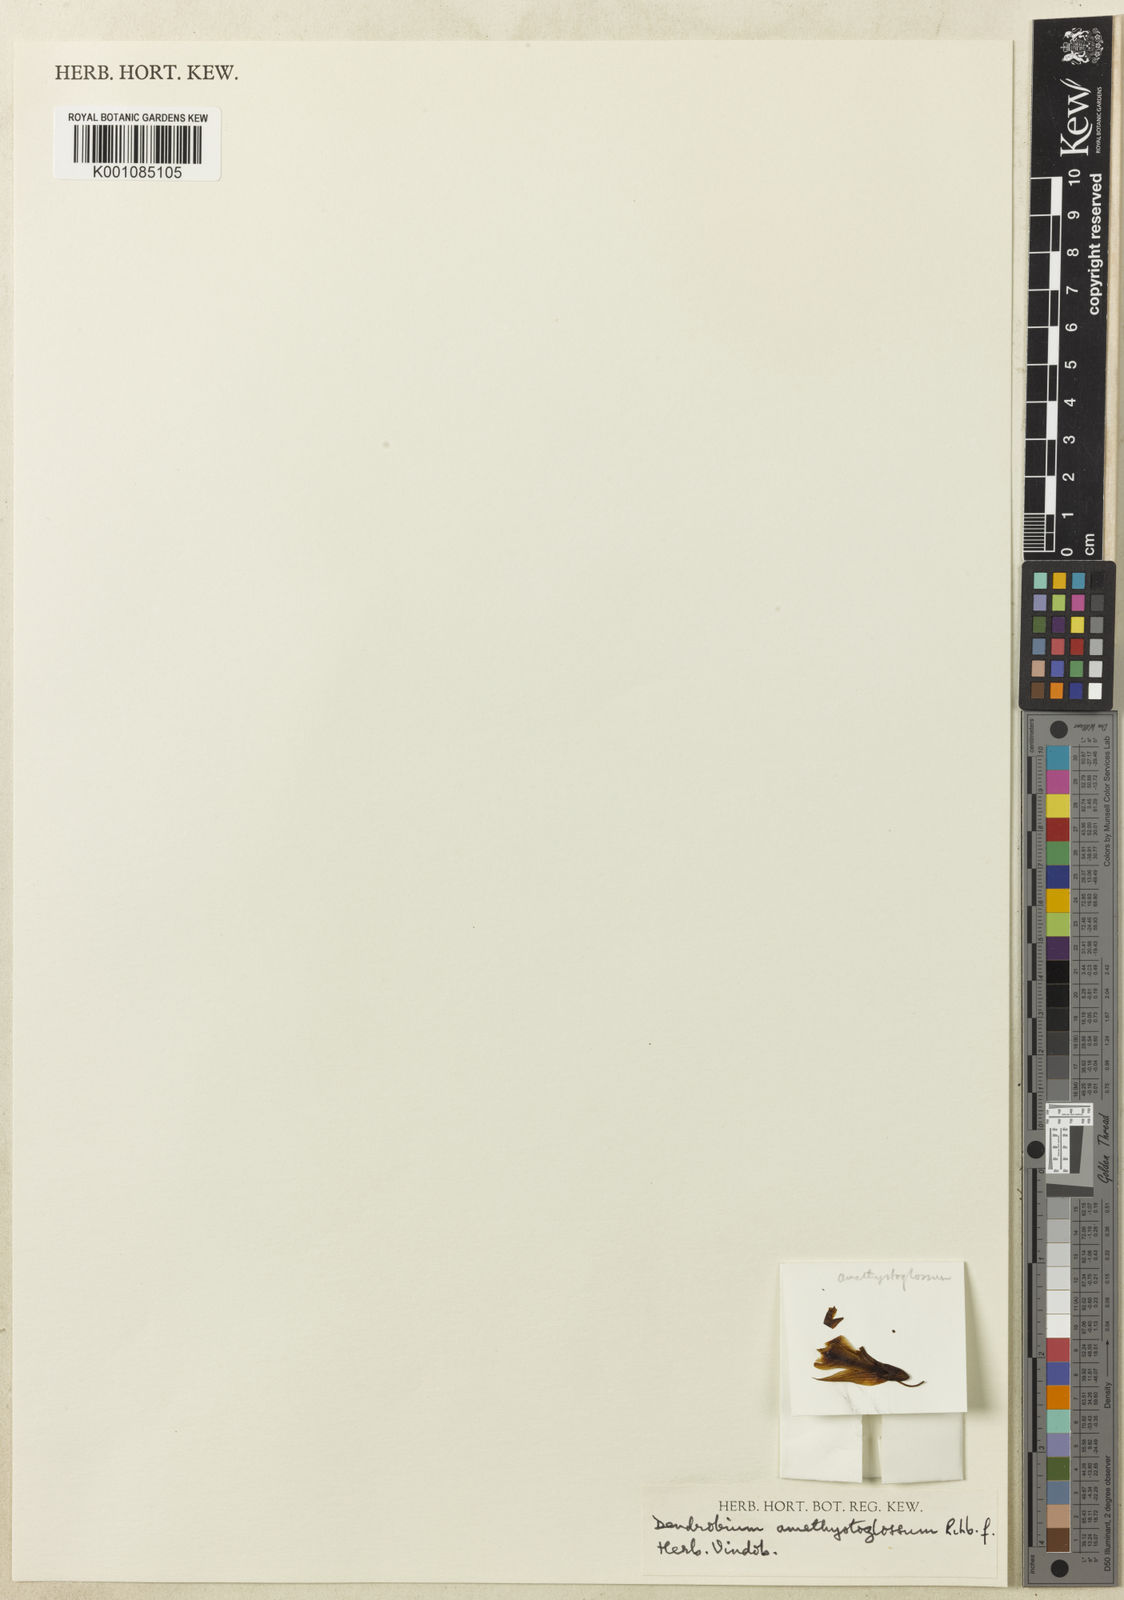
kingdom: Plantae
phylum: Tracheophyta
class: Liliopsida
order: Asparagales
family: Orchidaceae
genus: Dendrobium
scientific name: Dendrobium amethystoglossum
